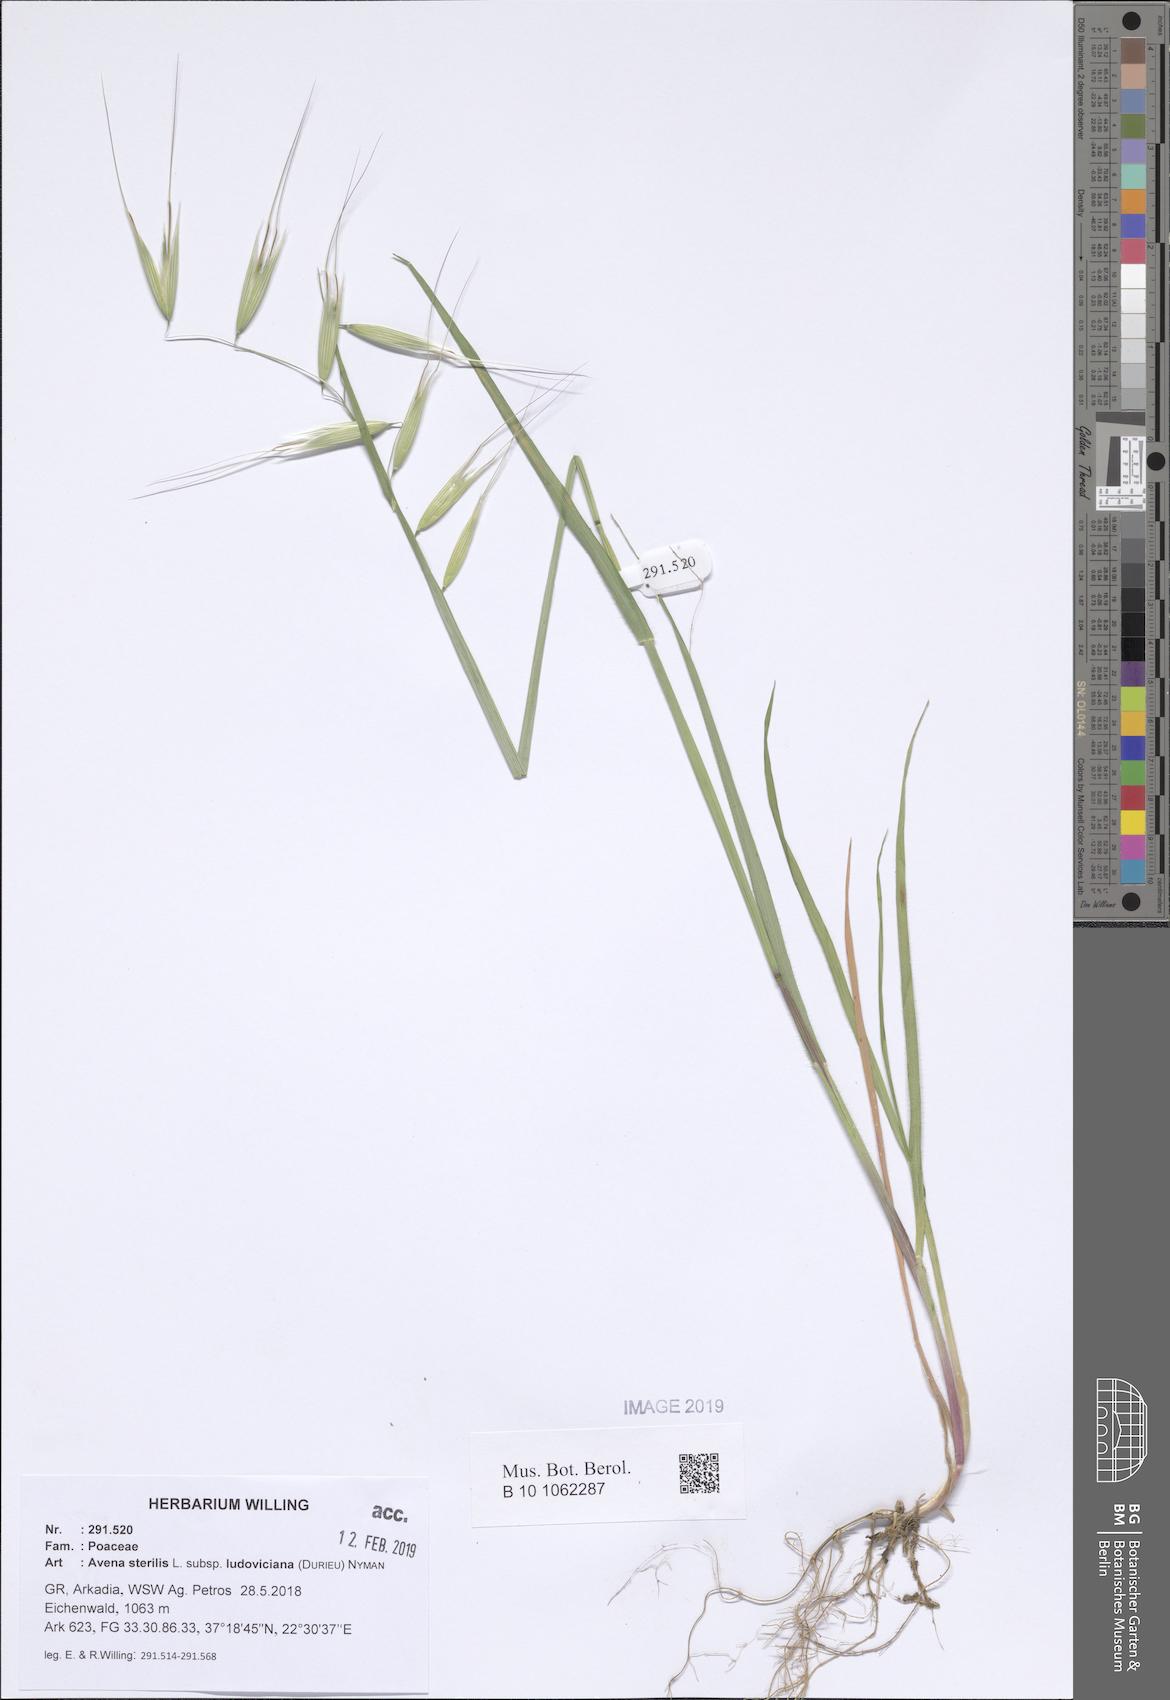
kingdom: Plantae
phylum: Tracheophyta
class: Liliopsida
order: Poales
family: Poaceae
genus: Avena
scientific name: Avena sterilis
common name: Animated oat
